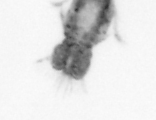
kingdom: Animalia
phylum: Arthropoda
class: Copepoda
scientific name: Copepoda
